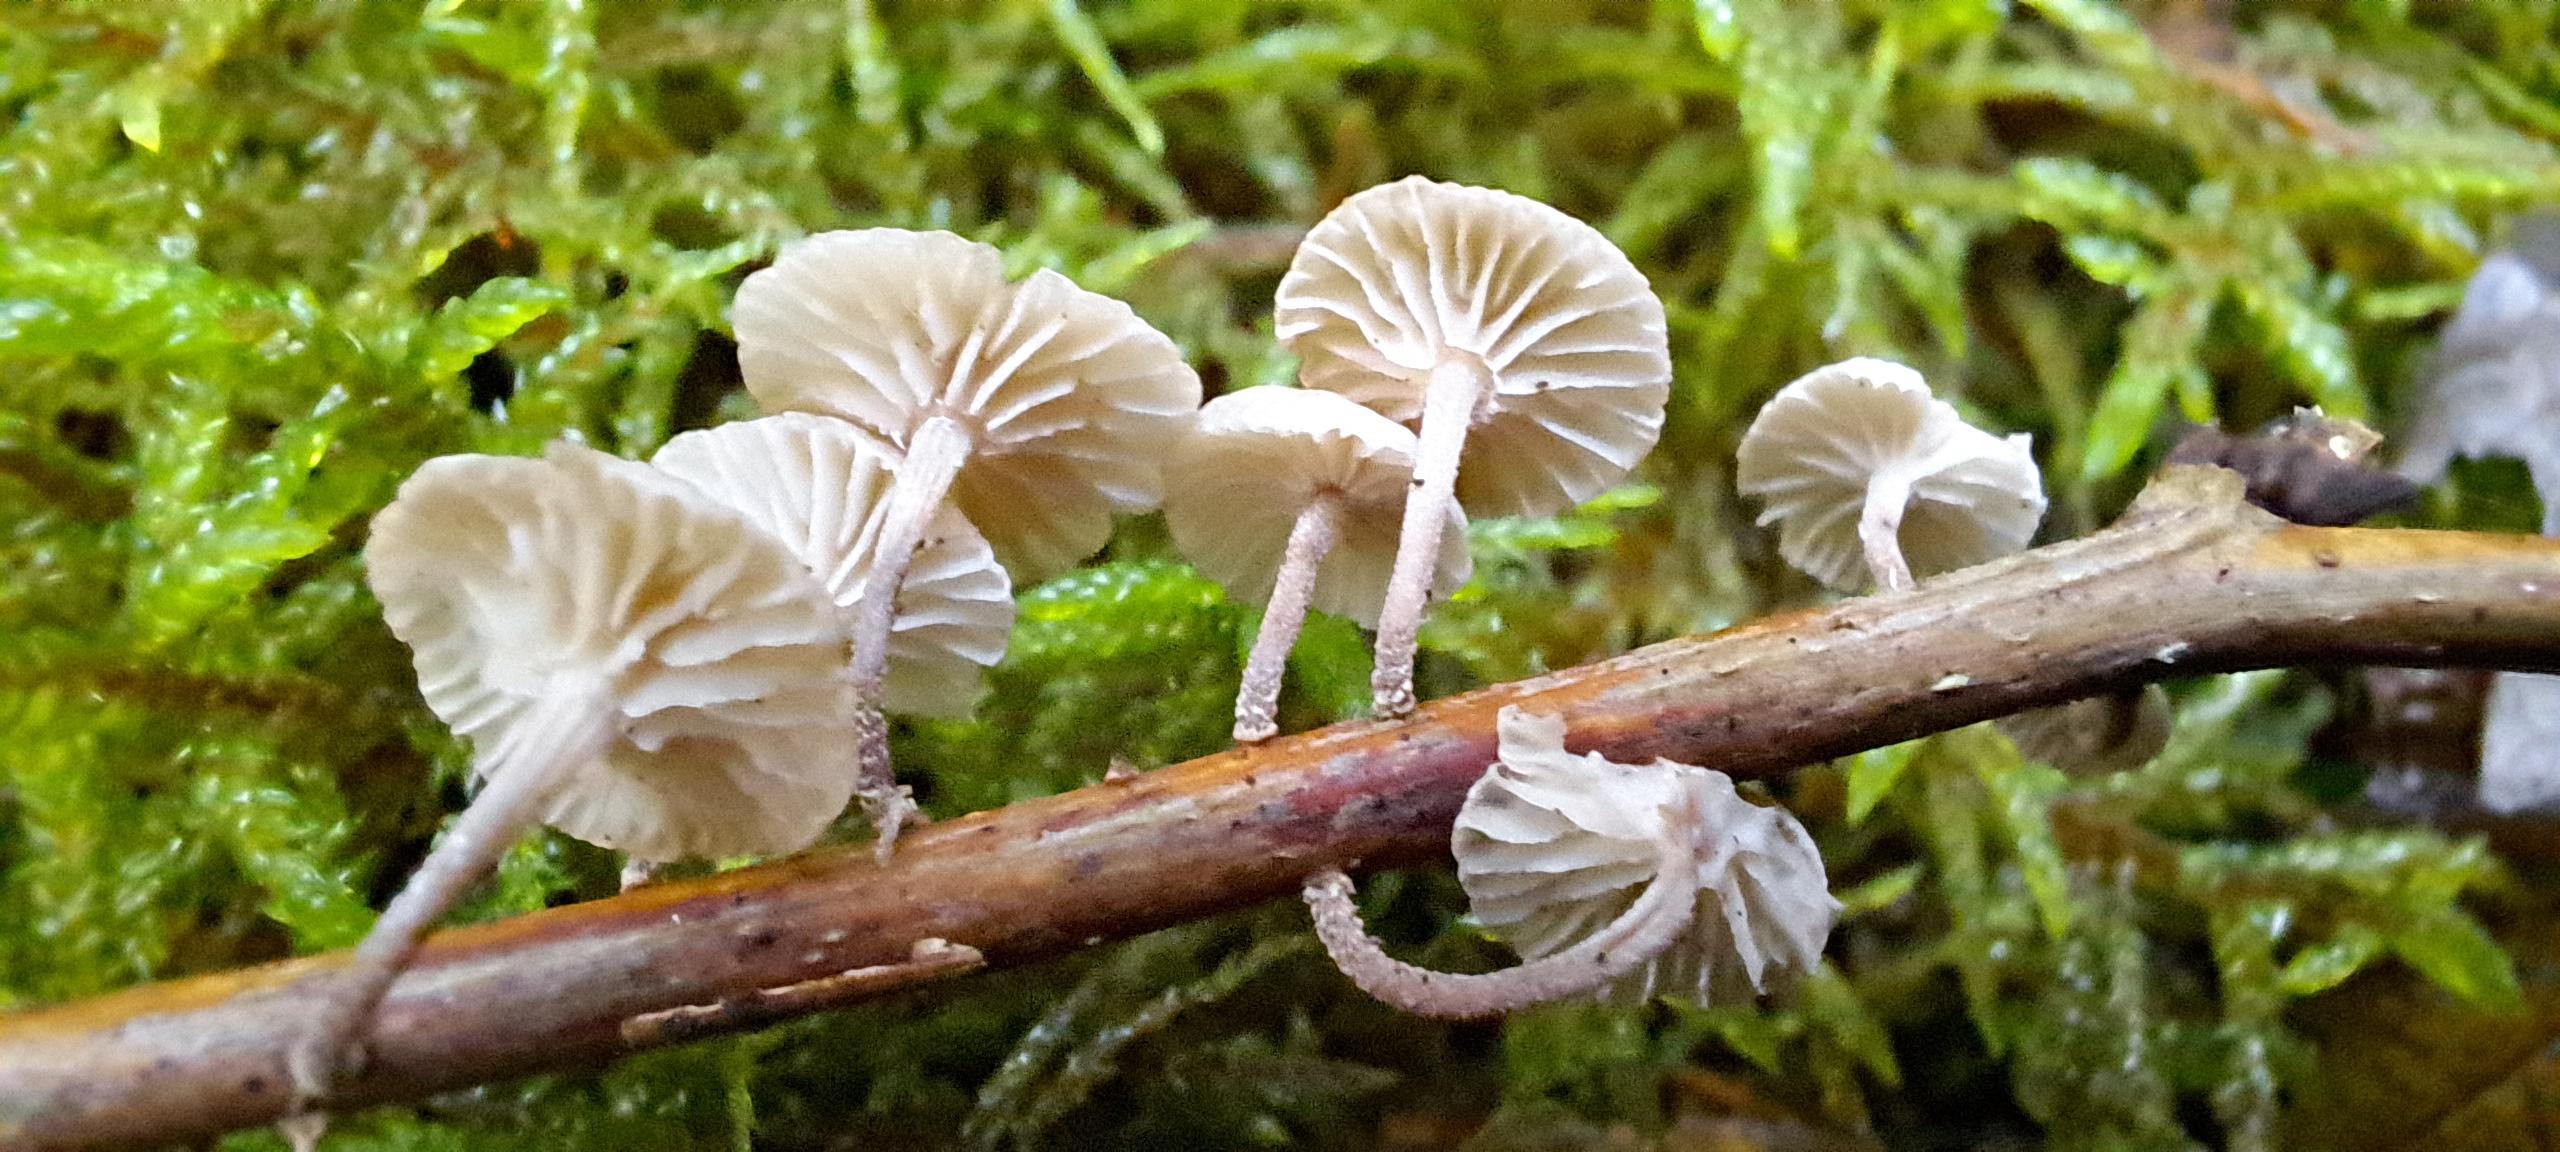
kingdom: Fungi
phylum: Basidiomycota
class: Agaricomycetes
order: Agaricales
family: Omphalotaceae
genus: Collybiopsis
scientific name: Collybiopsis ramealis
